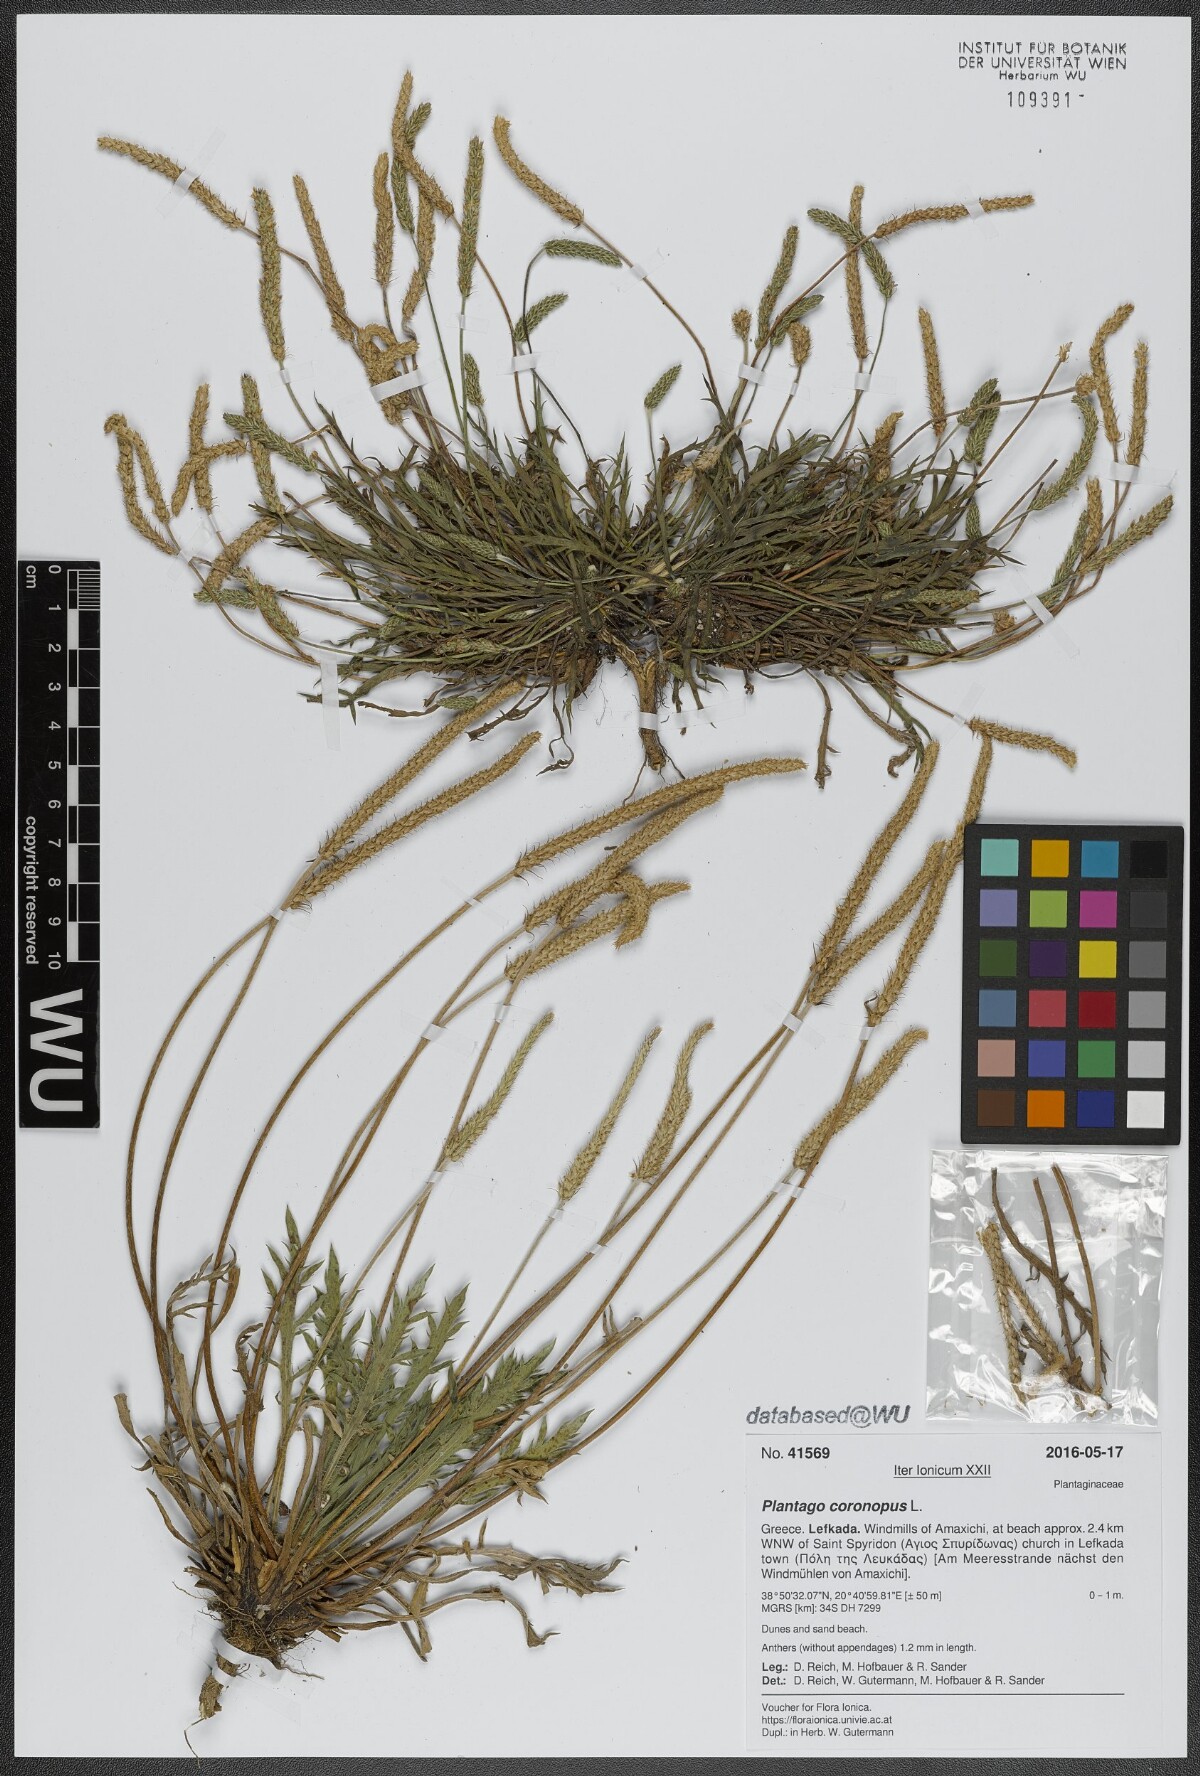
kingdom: Plantae
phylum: Tracheophyta
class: Magnoliopsida
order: Lamiales
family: Plantaginaceae
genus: Plantago
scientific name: Plantago coronopus
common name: Buck's-horn plantain
